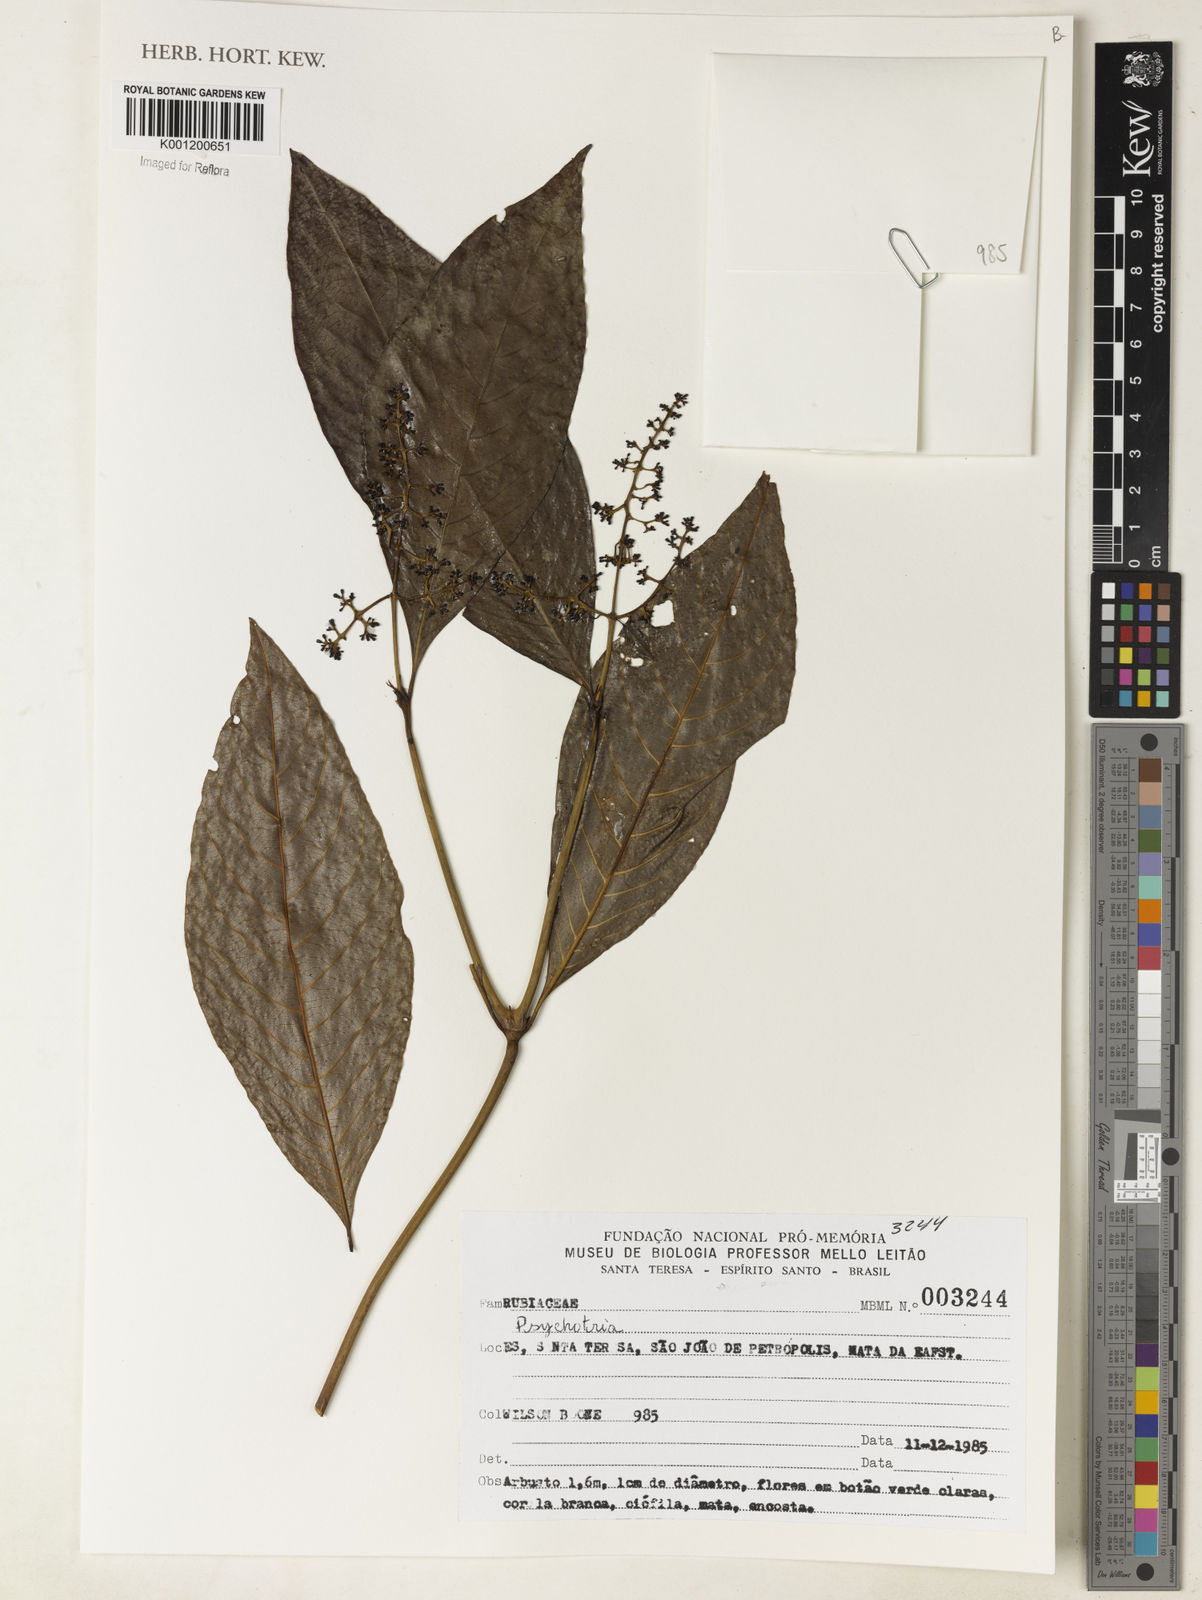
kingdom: Plantae
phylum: Tracheophyta
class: Magnoliopsida
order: Gentianales
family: Rubiaceae
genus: Psychotria
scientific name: Psychotria
